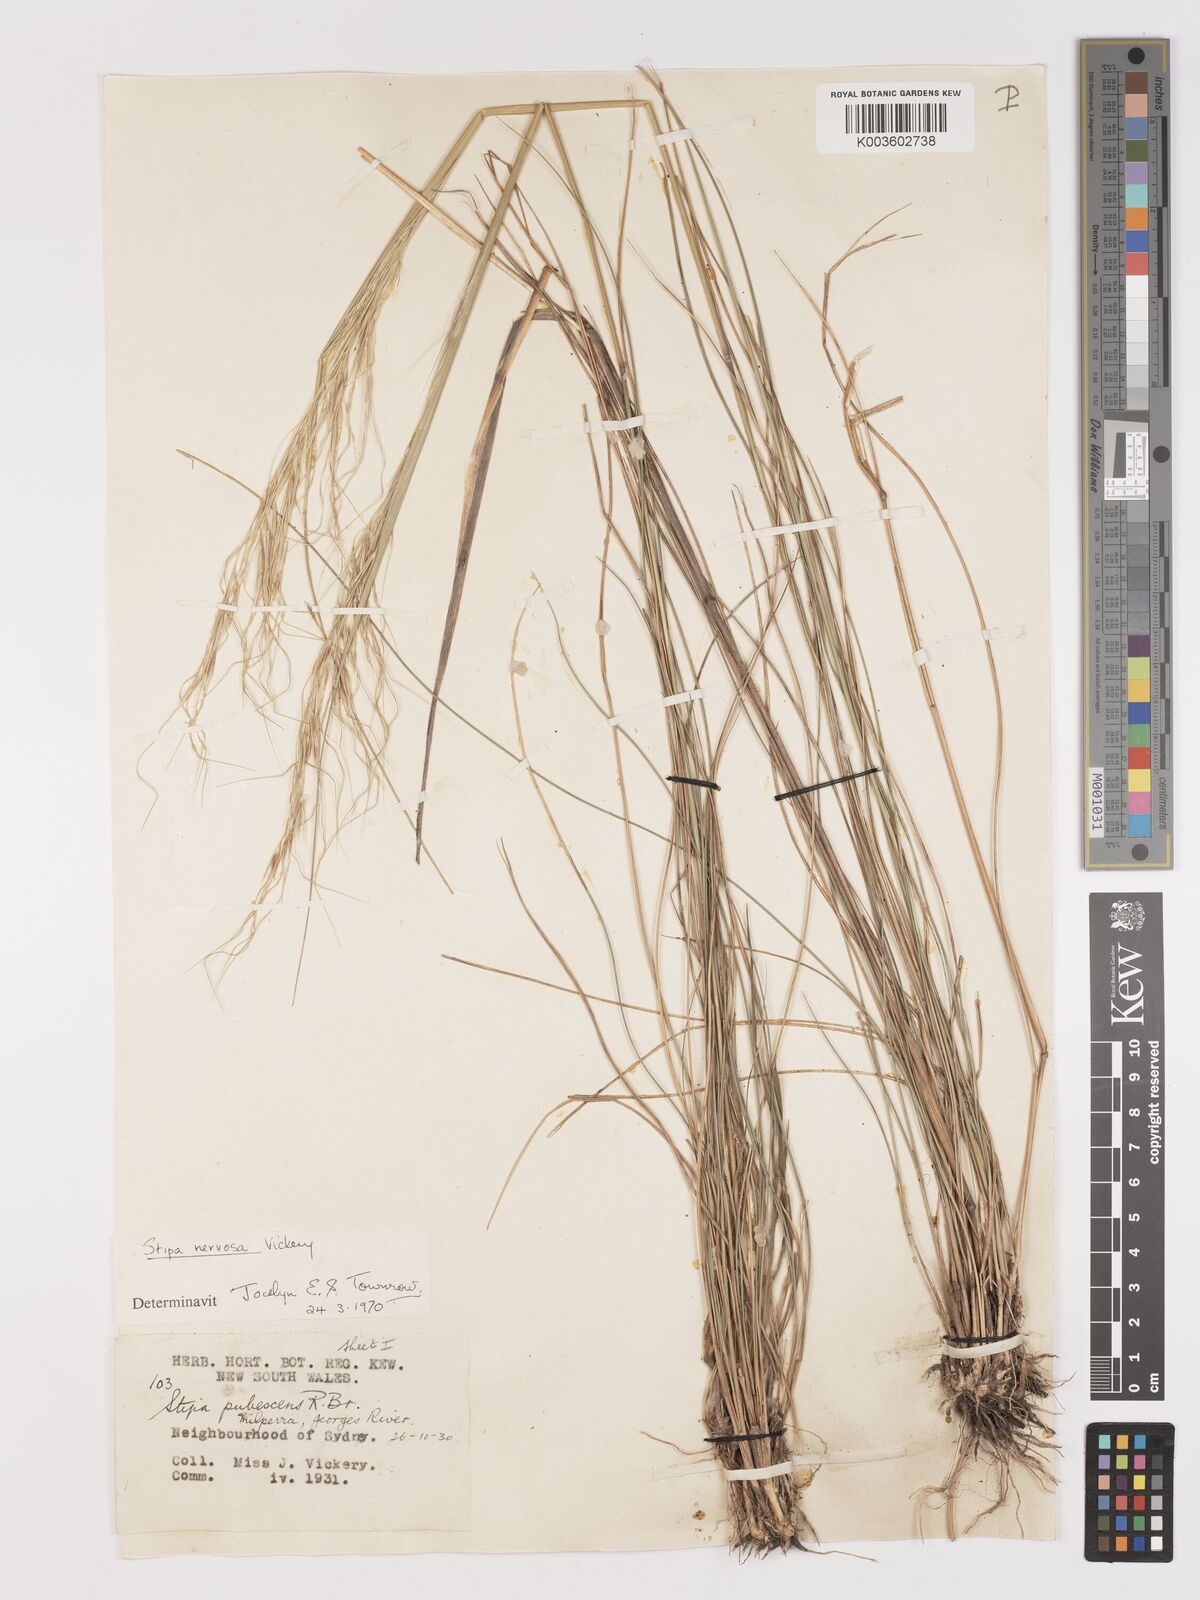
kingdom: Plantae
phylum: Tracheophyta
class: Liliopsida
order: Poales
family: Poaceae
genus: Austrostipa
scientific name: Austrostipa rudis
